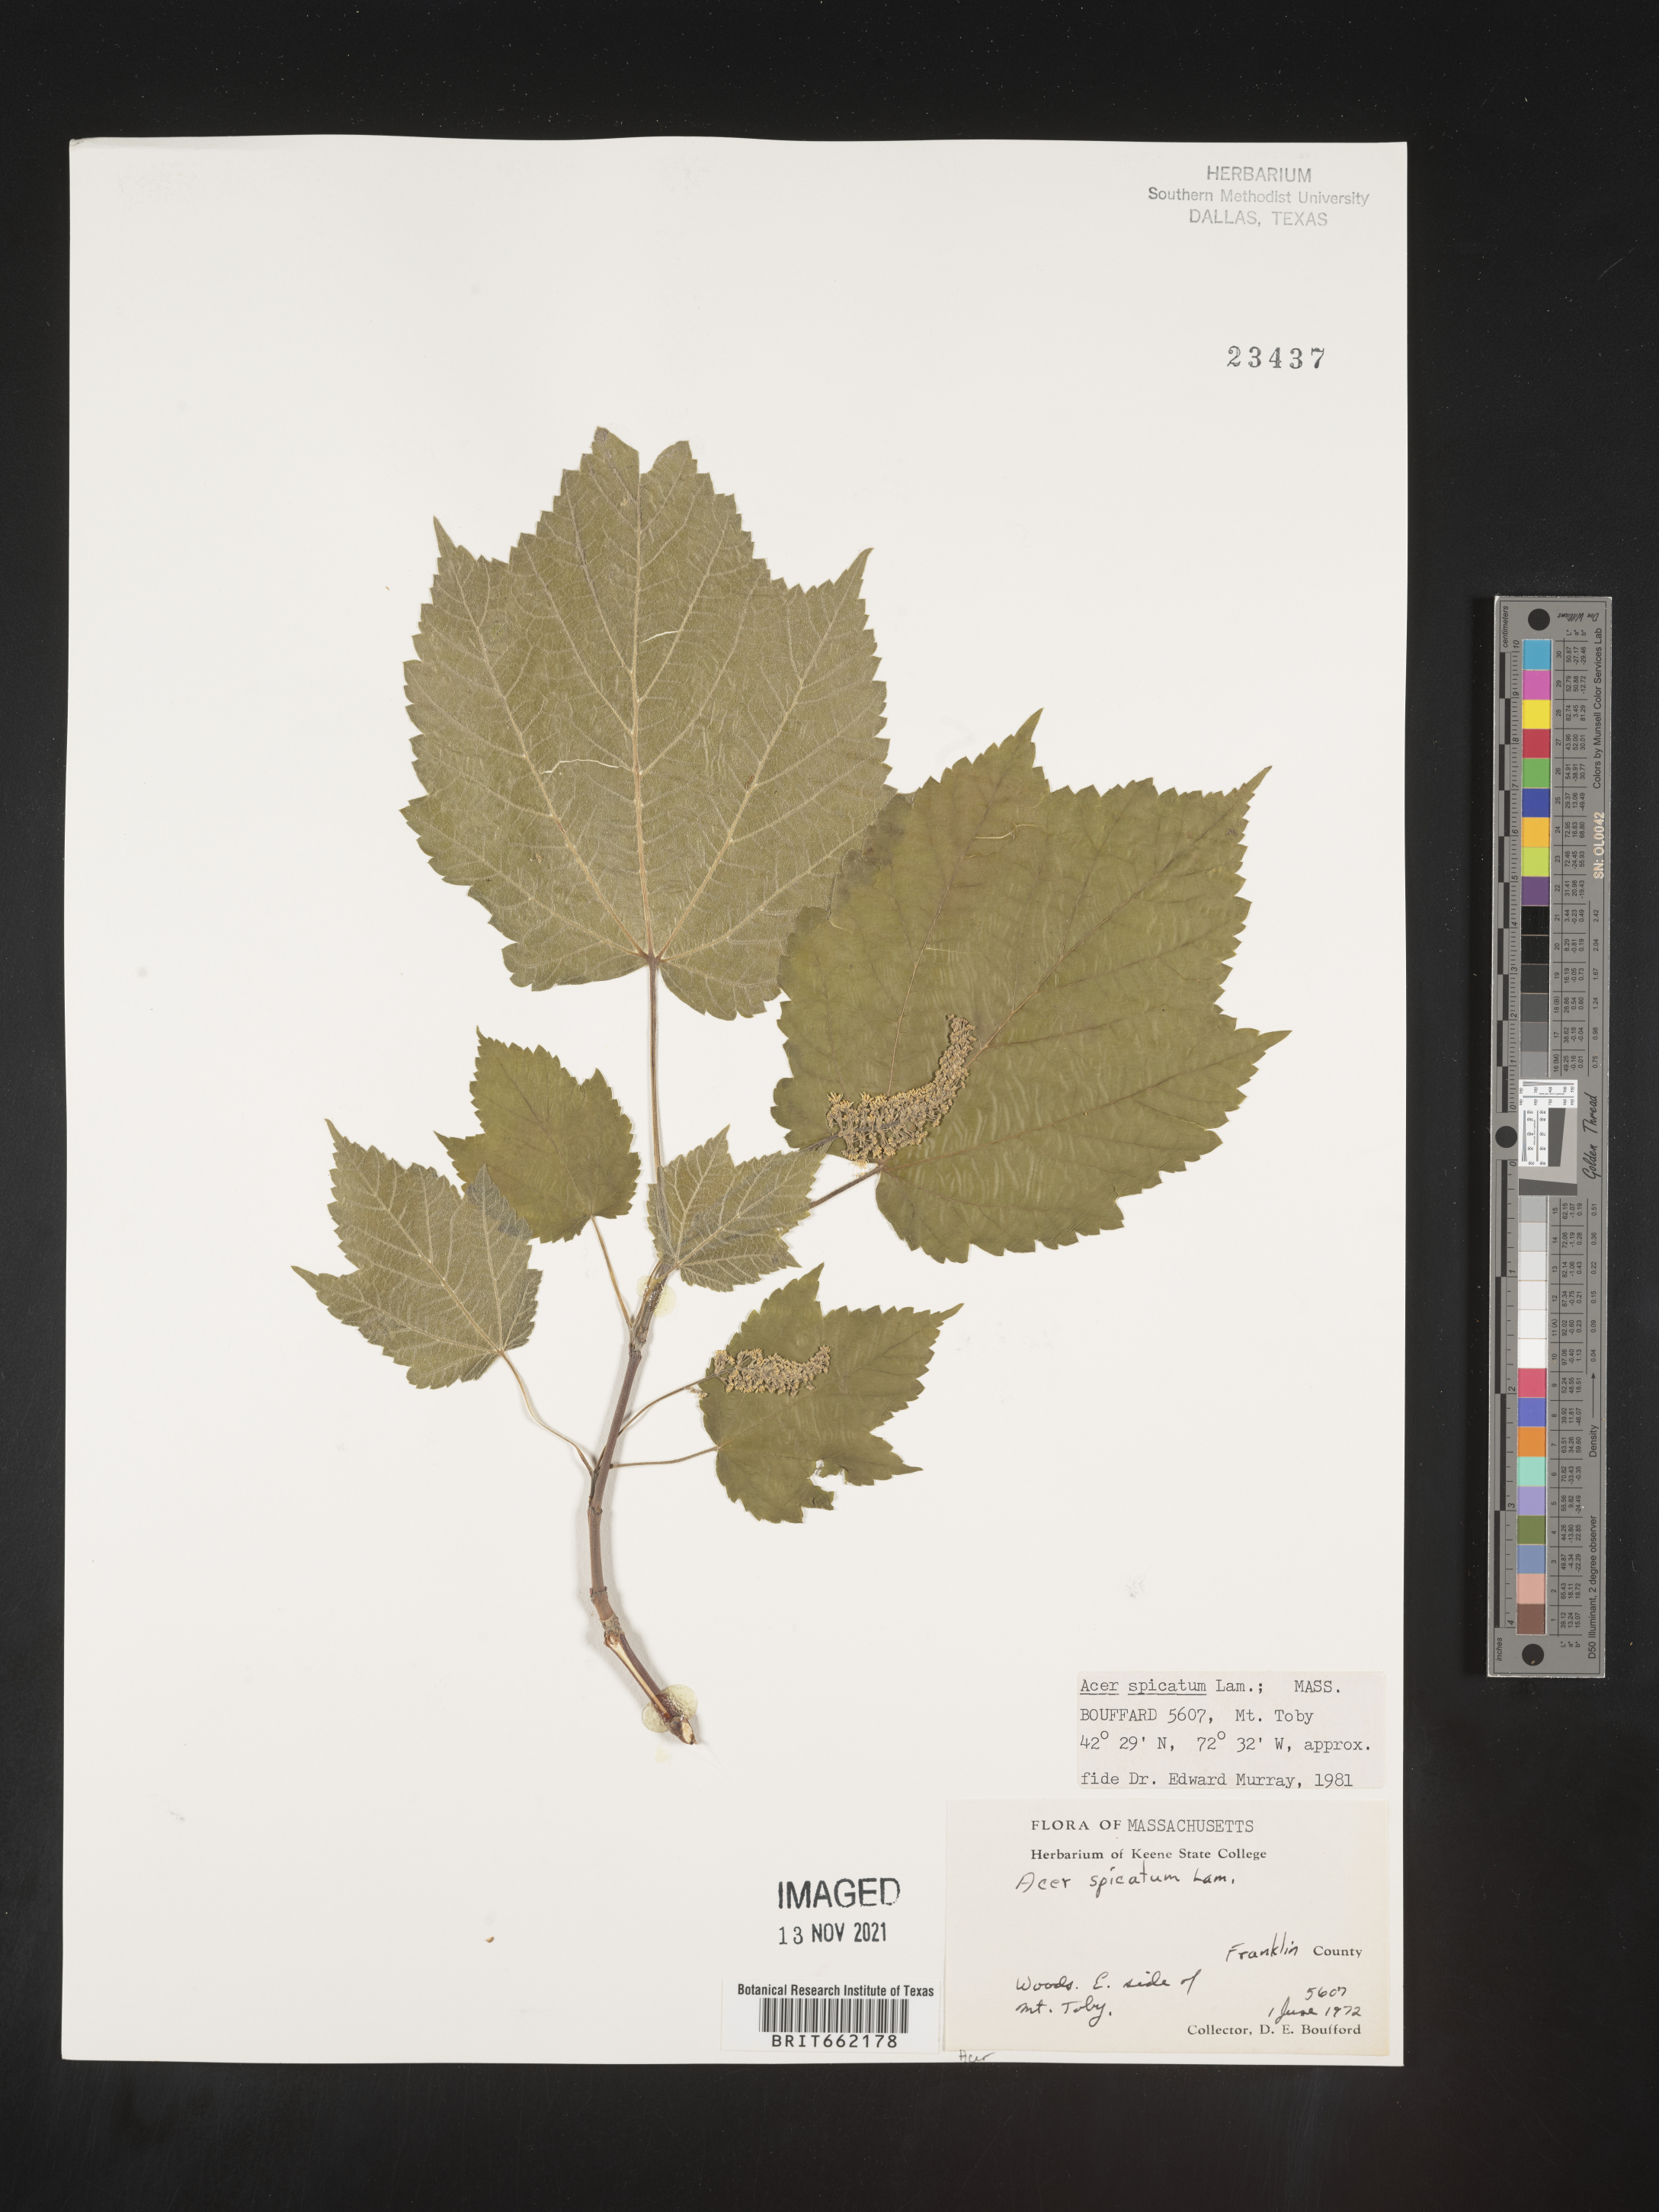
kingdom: Plantae
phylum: Tracheophyta
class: Magnoliopsida
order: Sapindales
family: Sapindaceae
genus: Acer
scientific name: Acer spicatum
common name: Mountain maple
